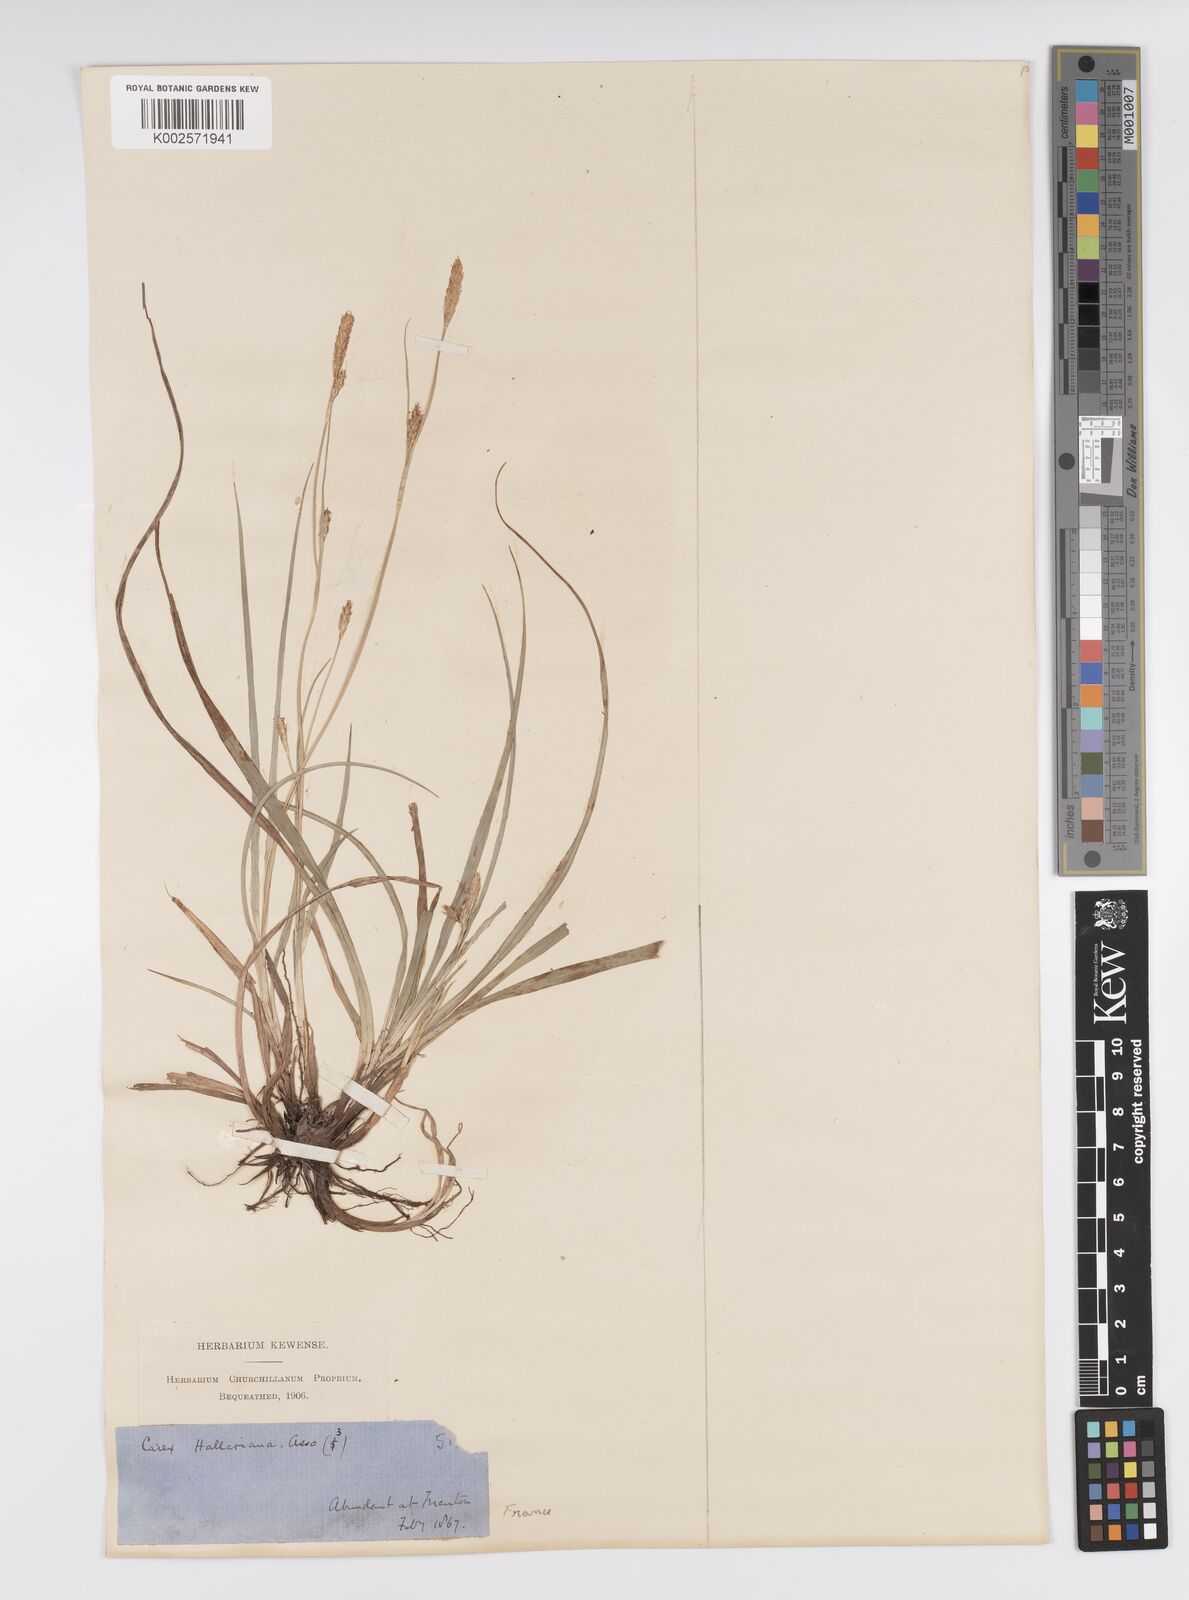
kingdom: Plantae
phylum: Tracheophyta
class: Liliopsida
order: Poales
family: Cyperaceae
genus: Carex
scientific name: Carex halleriana
